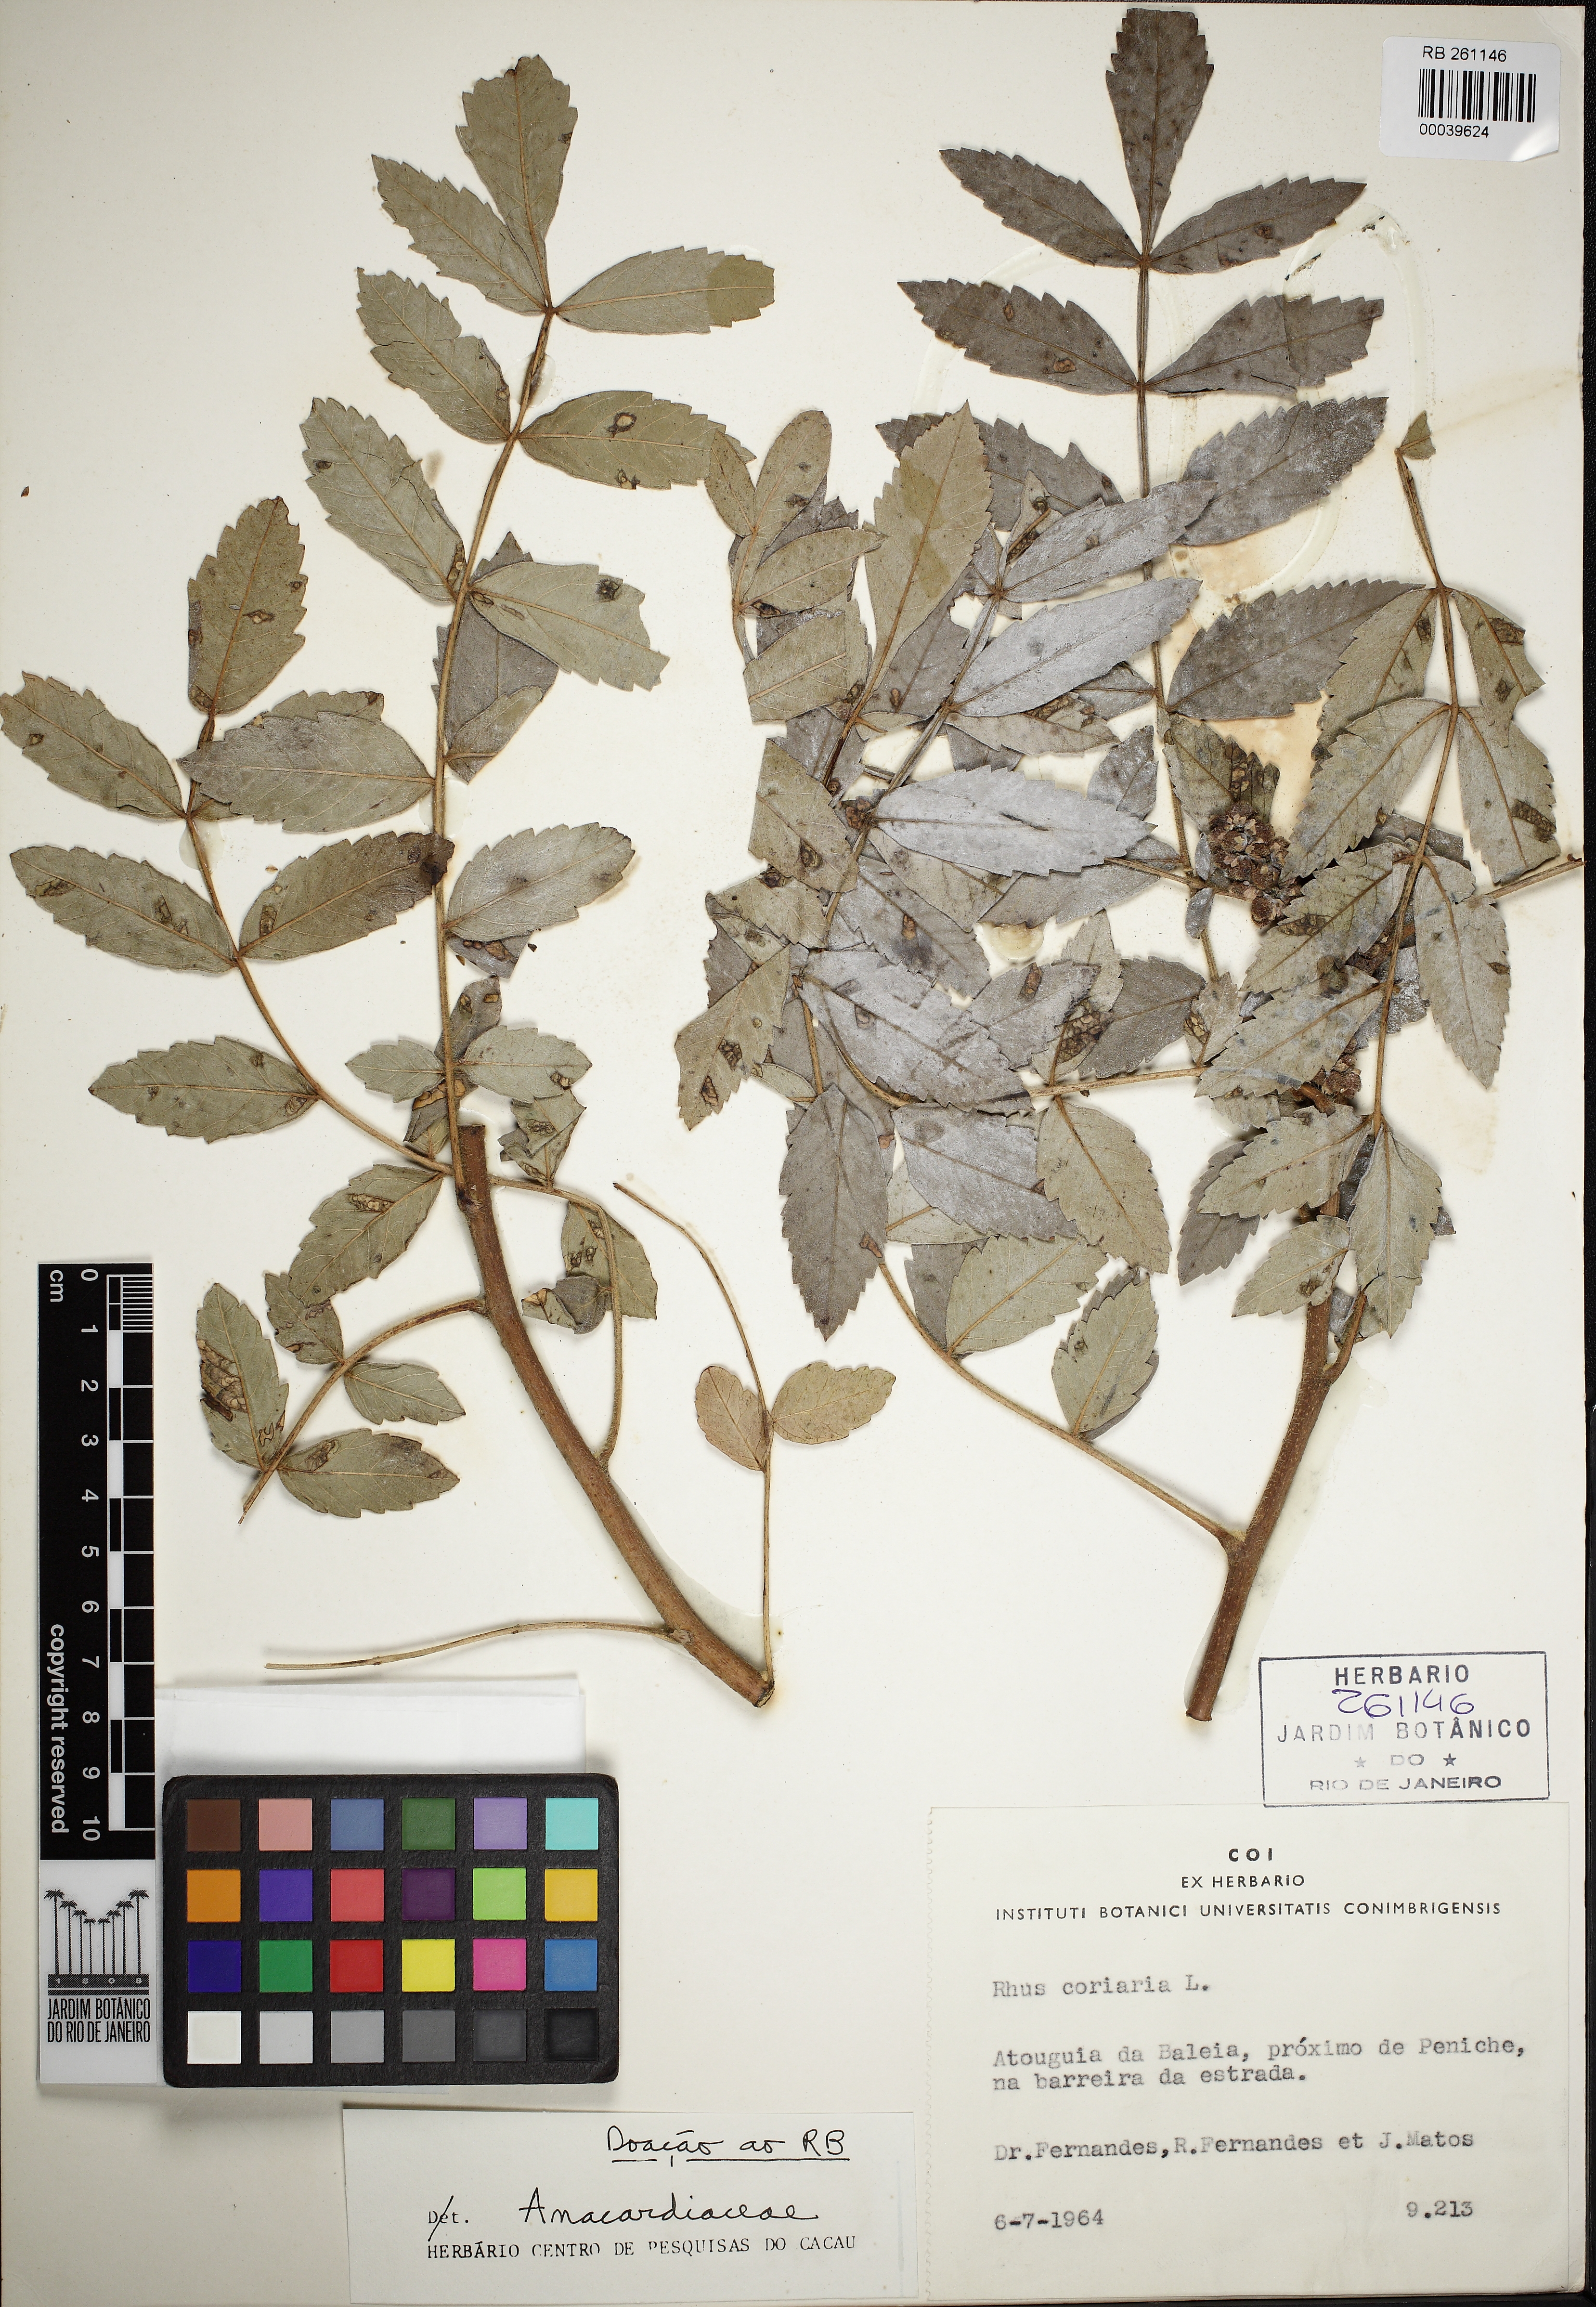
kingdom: Plantae
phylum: Tracheophyta
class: Magnoliopsida
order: Sapindales
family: Anacardiaceae
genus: Rhus
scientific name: Rhus coriaria
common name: Tanner's sumach
